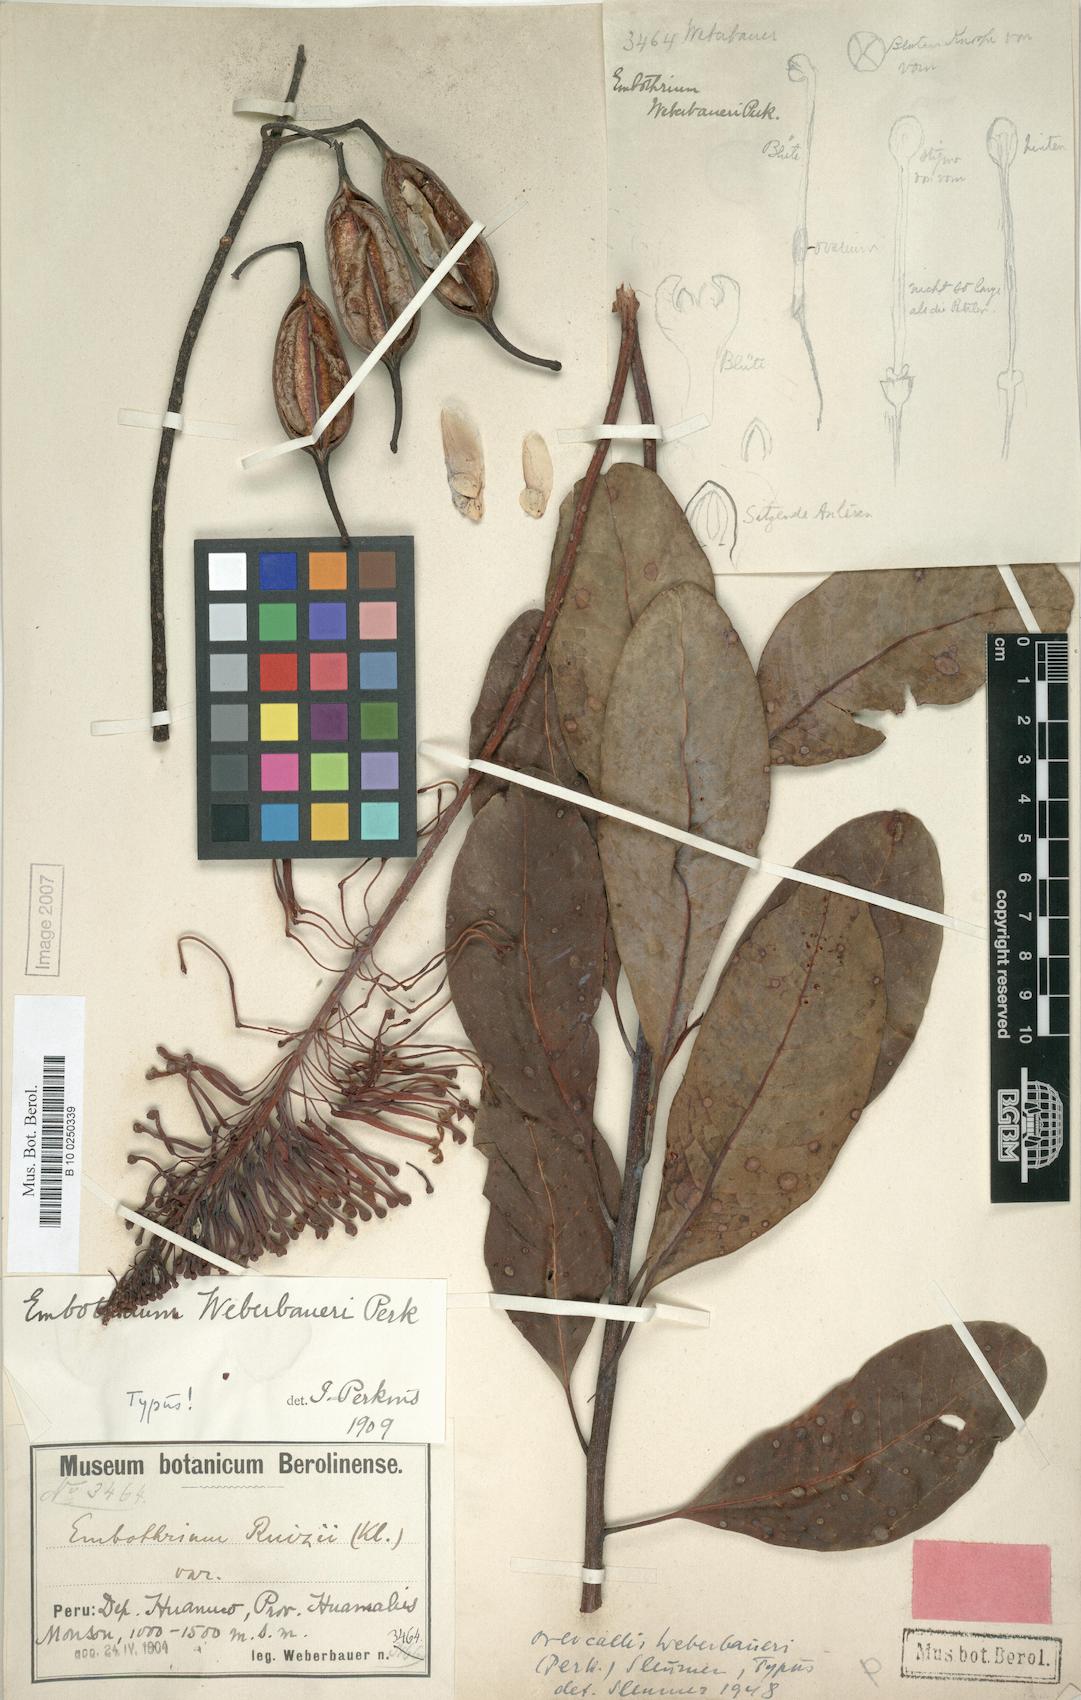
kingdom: Plantae
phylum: Tracheophyta
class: Magnoliopsida
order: Proteales
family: Proteaceae
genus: Oreocallis
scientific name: Oreocallis grandiflora
